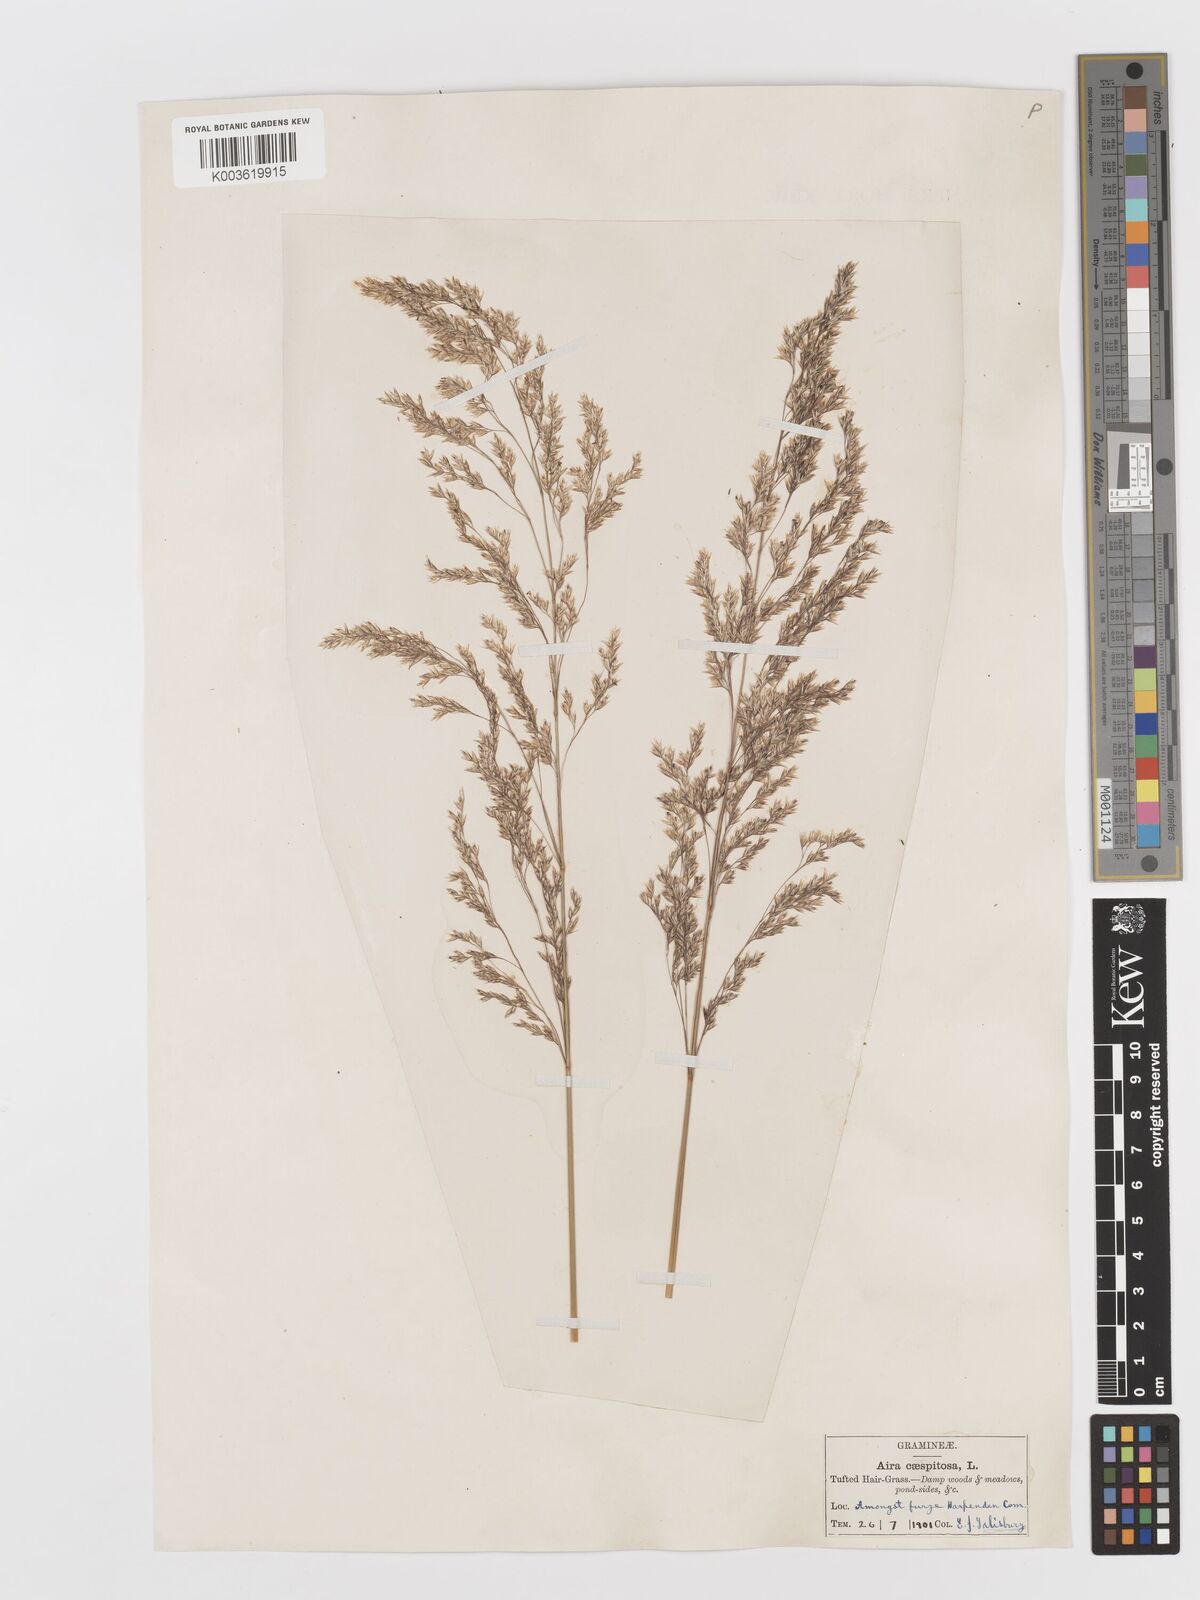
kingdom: Plantae
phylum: Tracheophyta
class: Liliopsida
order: Poales
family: Poaceae
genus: Deschampsia
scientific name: Deschampsia cespitosa
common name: Tufted hair-grass
